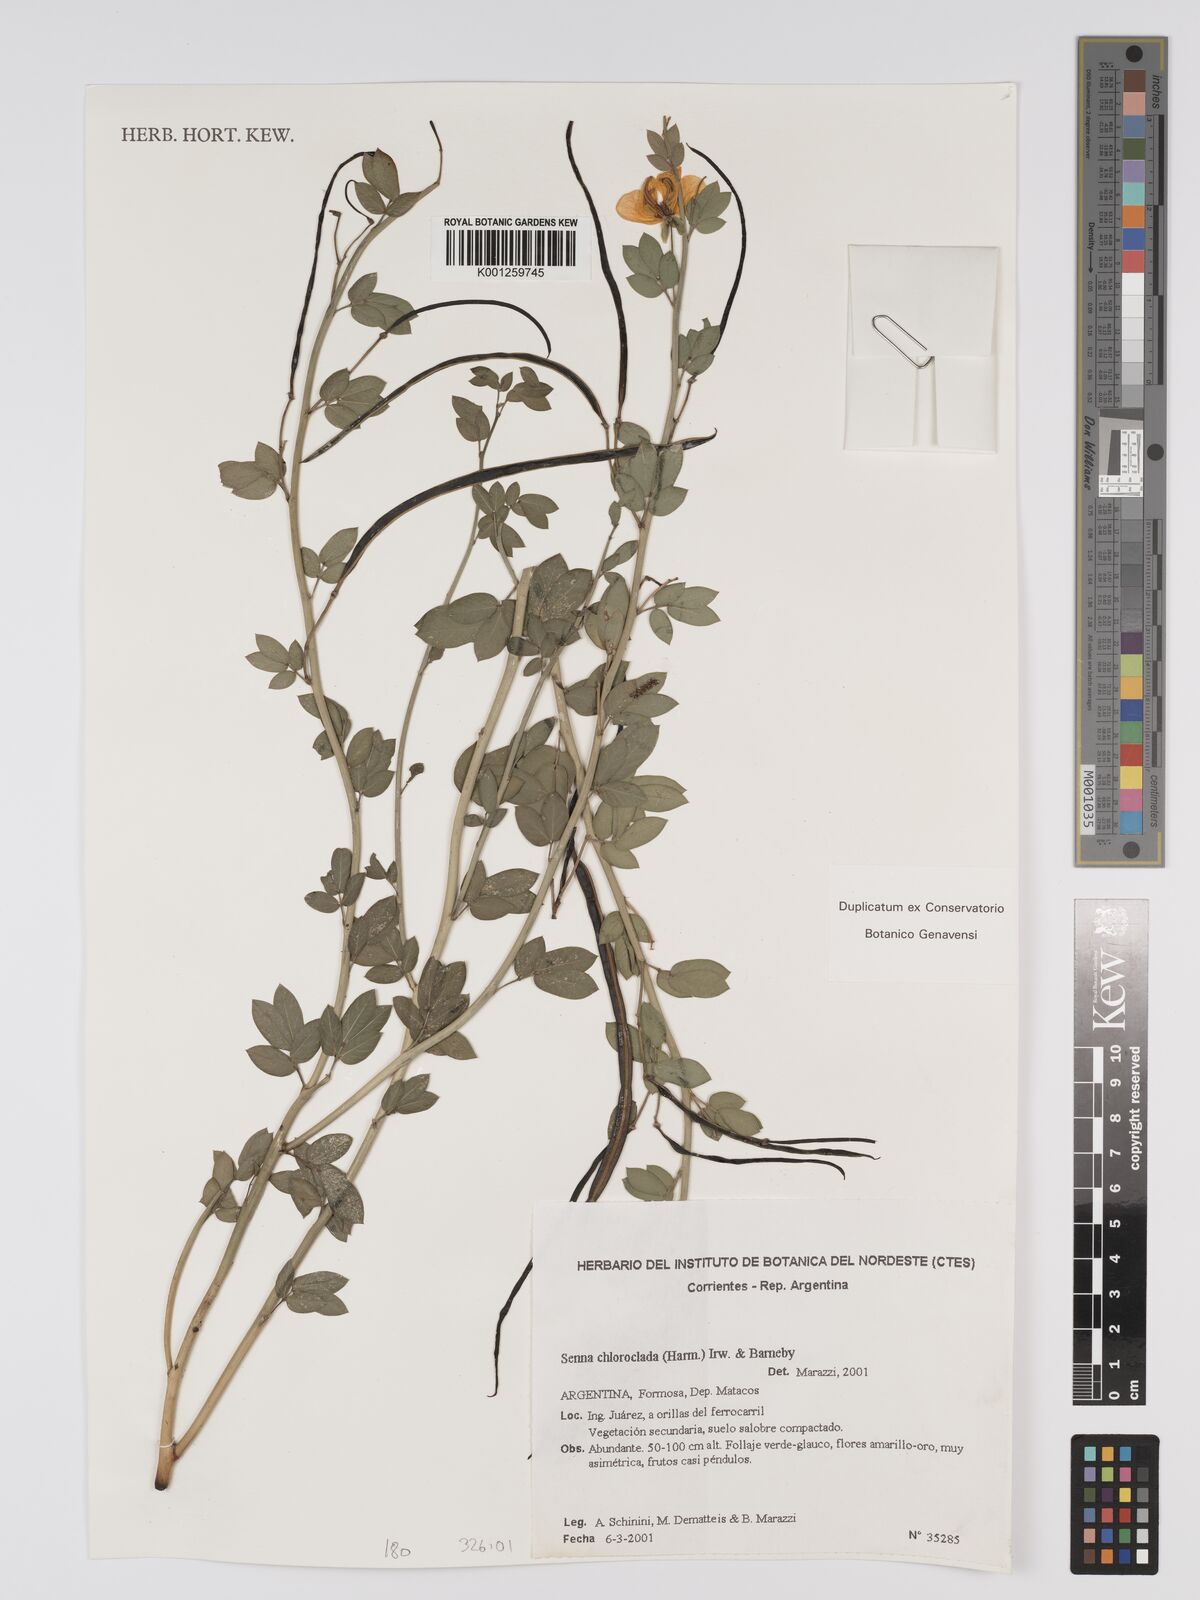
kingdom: Plantae
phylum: Tracheophyta
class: Magnoliopsida
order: Fabales
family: Fabaceae
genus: Senna
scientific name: Senna chloroclada
